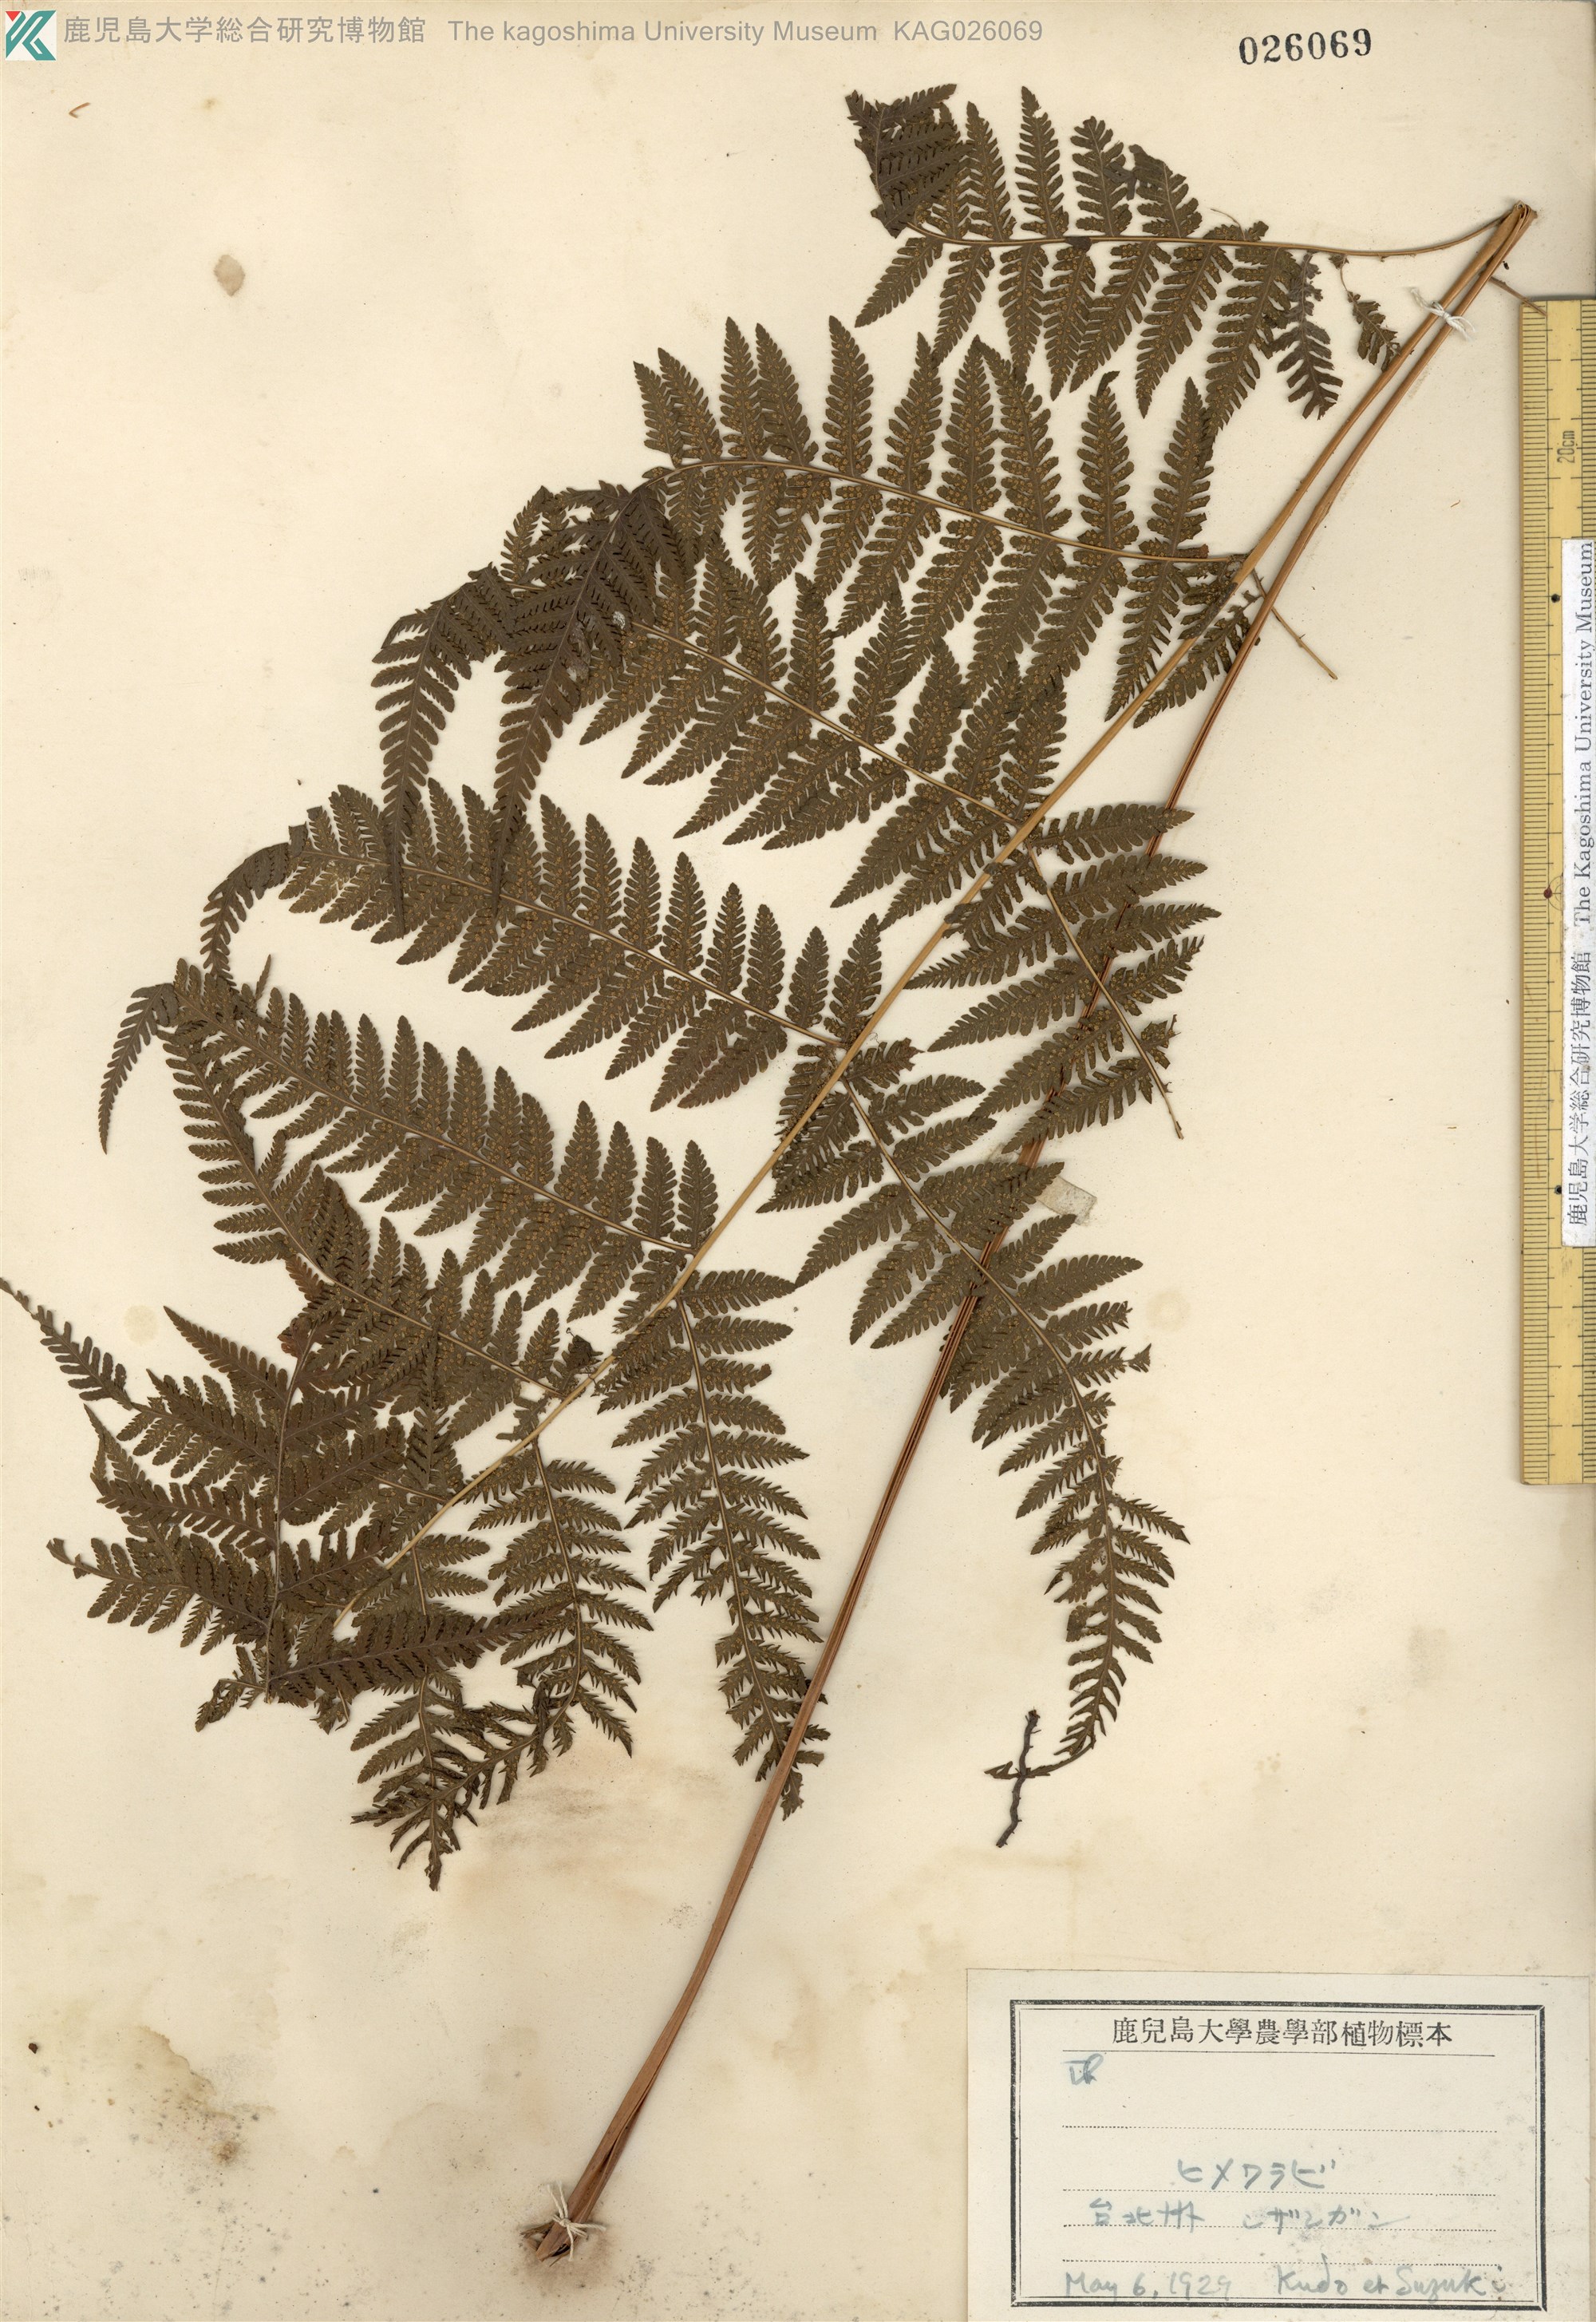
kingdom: Plantae
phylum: Tracheophyta
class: Polypodiopsida
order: Polypodiales
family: Thelypteridaceae
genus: Macrothelypteris
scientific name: Macrothelypteris oligophlebia
